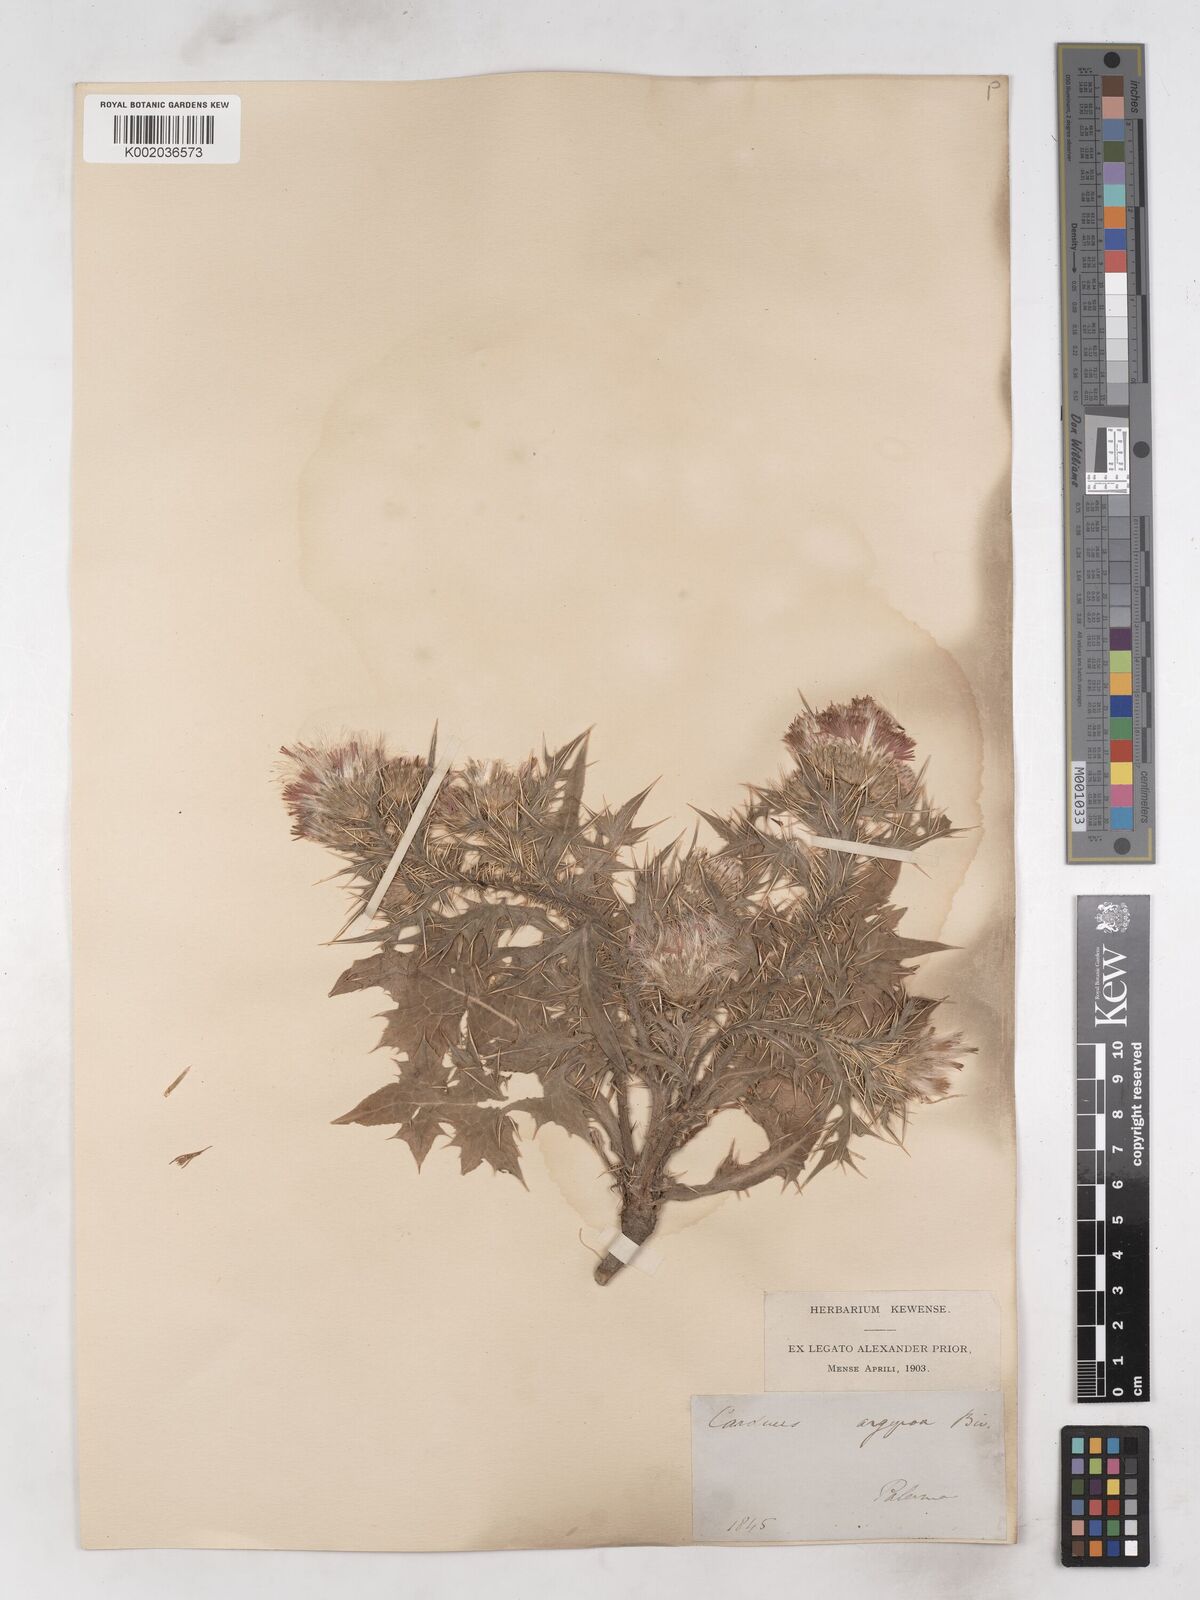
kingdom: Plantae
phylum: Tracheophyta
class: Magnoliopsida
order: Asterales
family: Asteraceae
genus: Carduus
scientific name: Carduus argyroa
